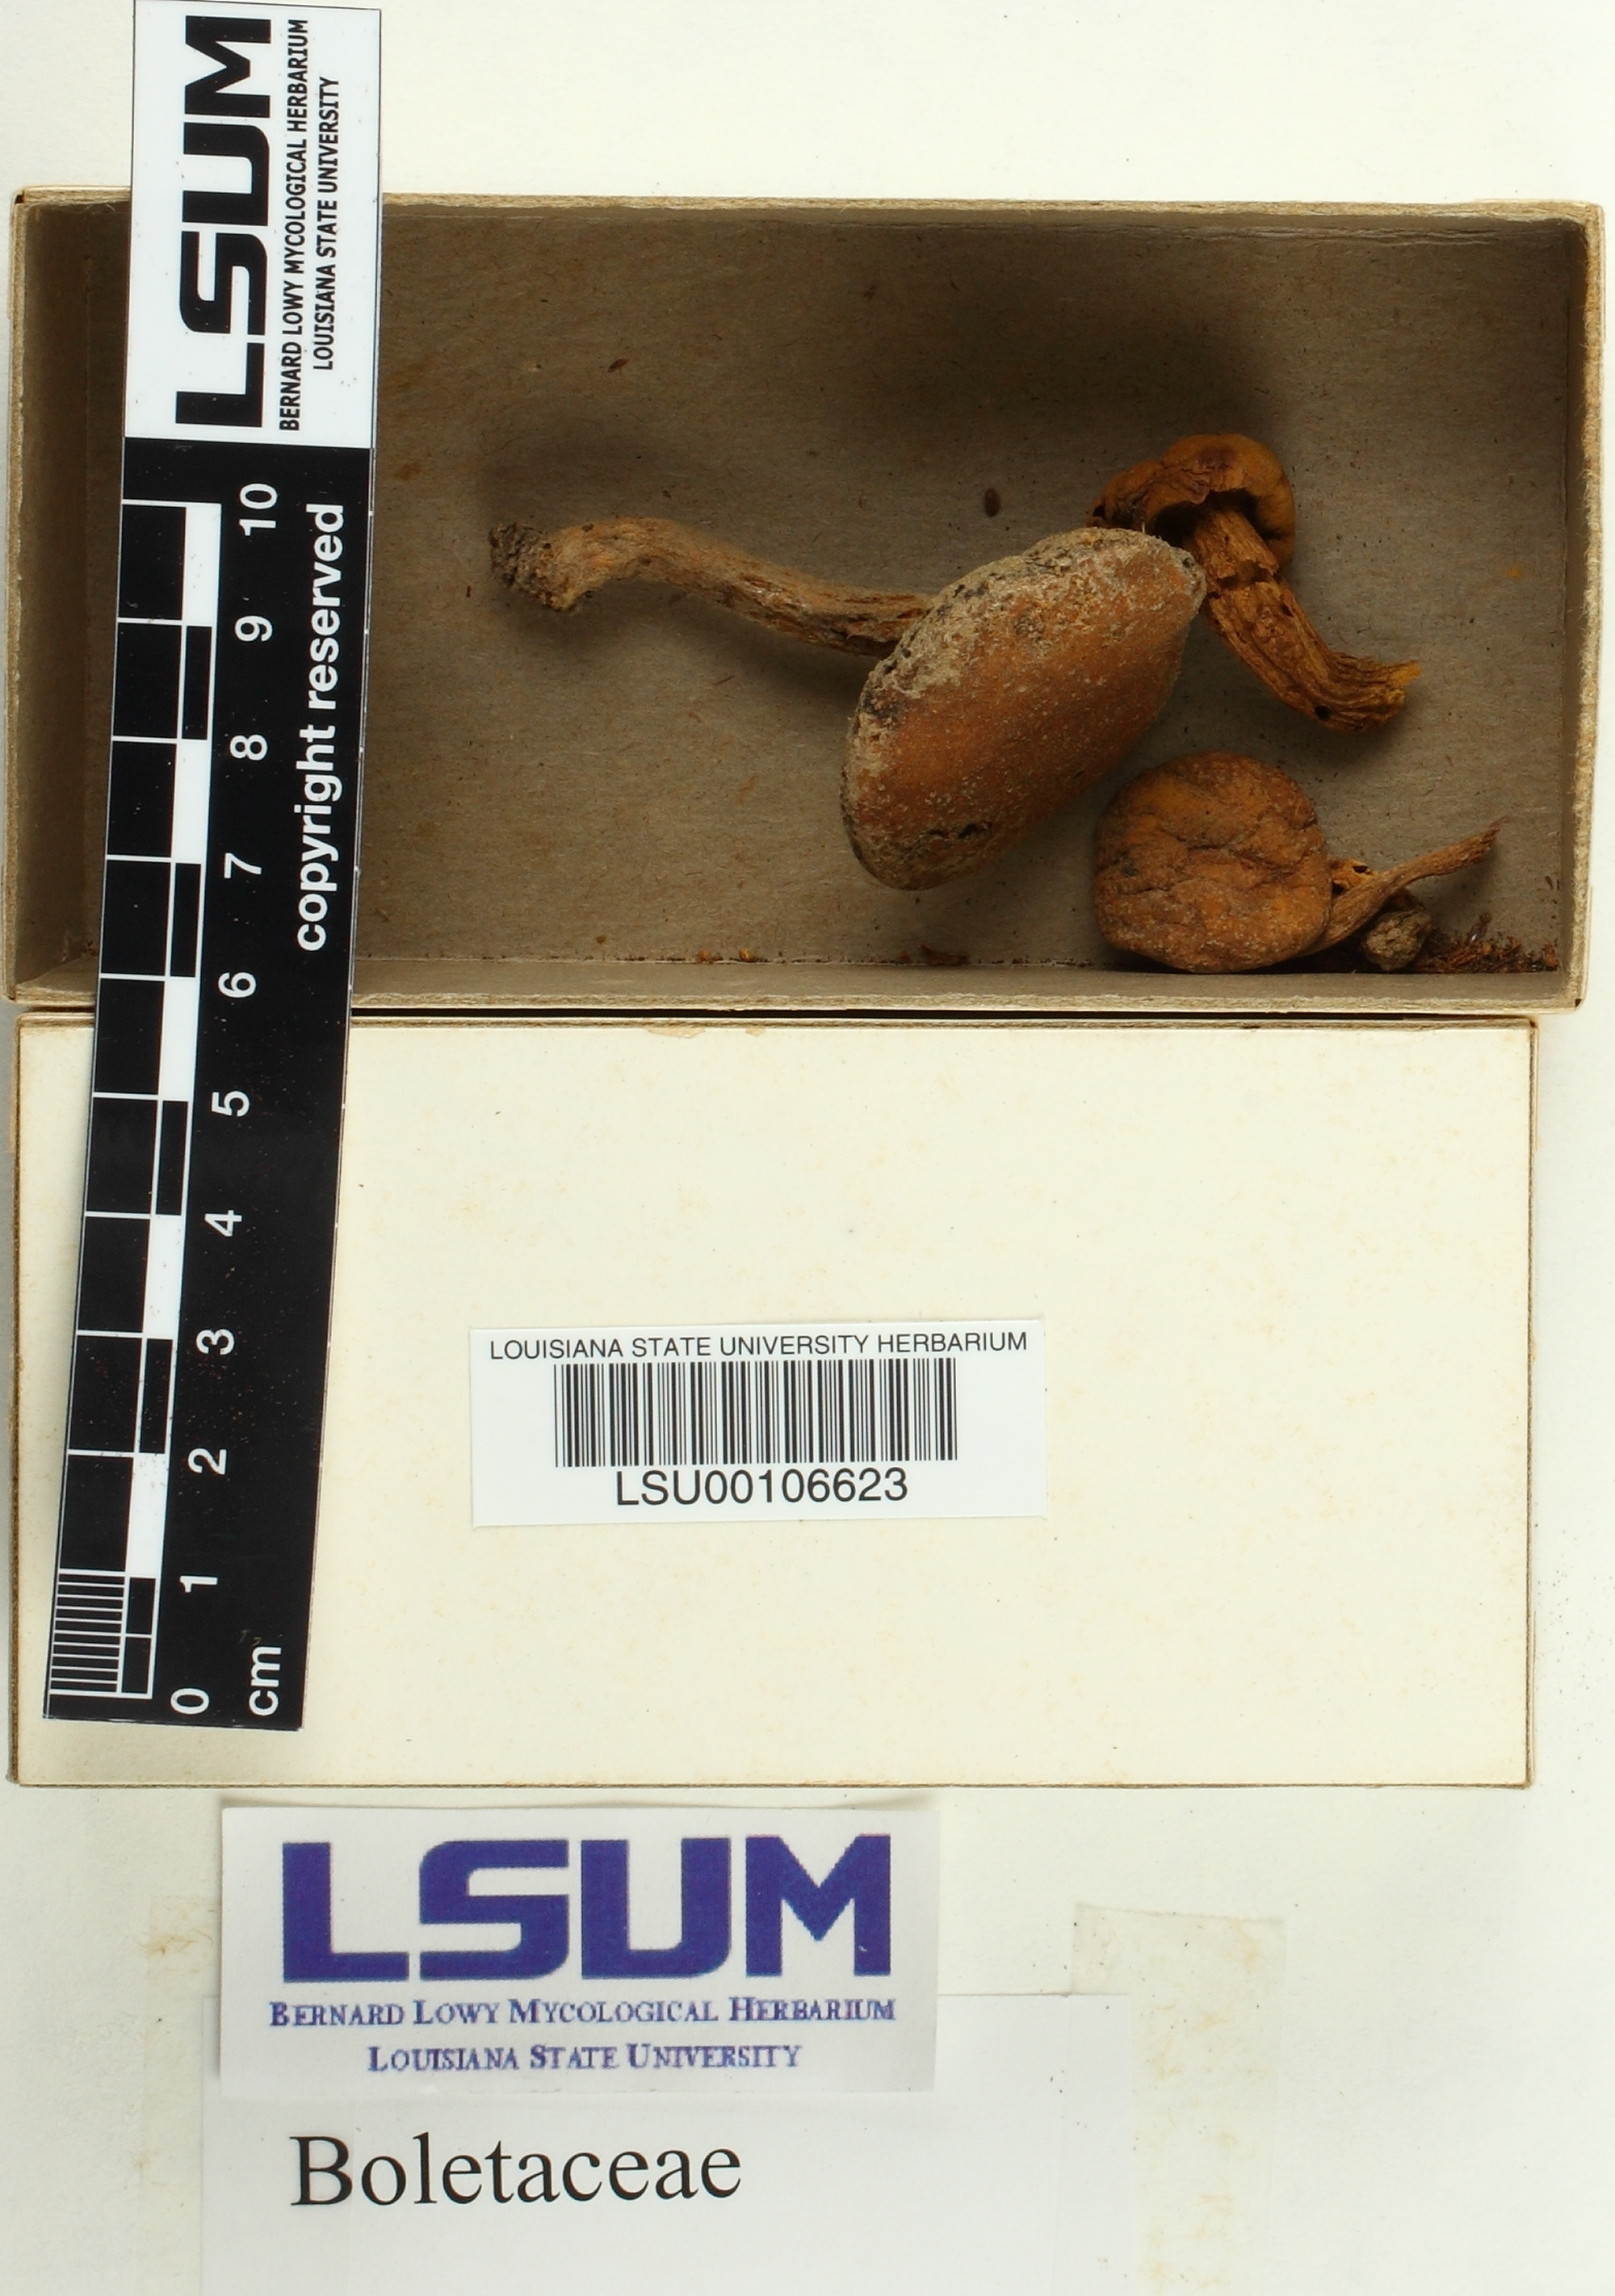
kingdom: Fungi
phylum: Basidiomycota
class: Agaricomycetes
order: Boletales
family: Boletaceae
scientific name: Boletaceae
